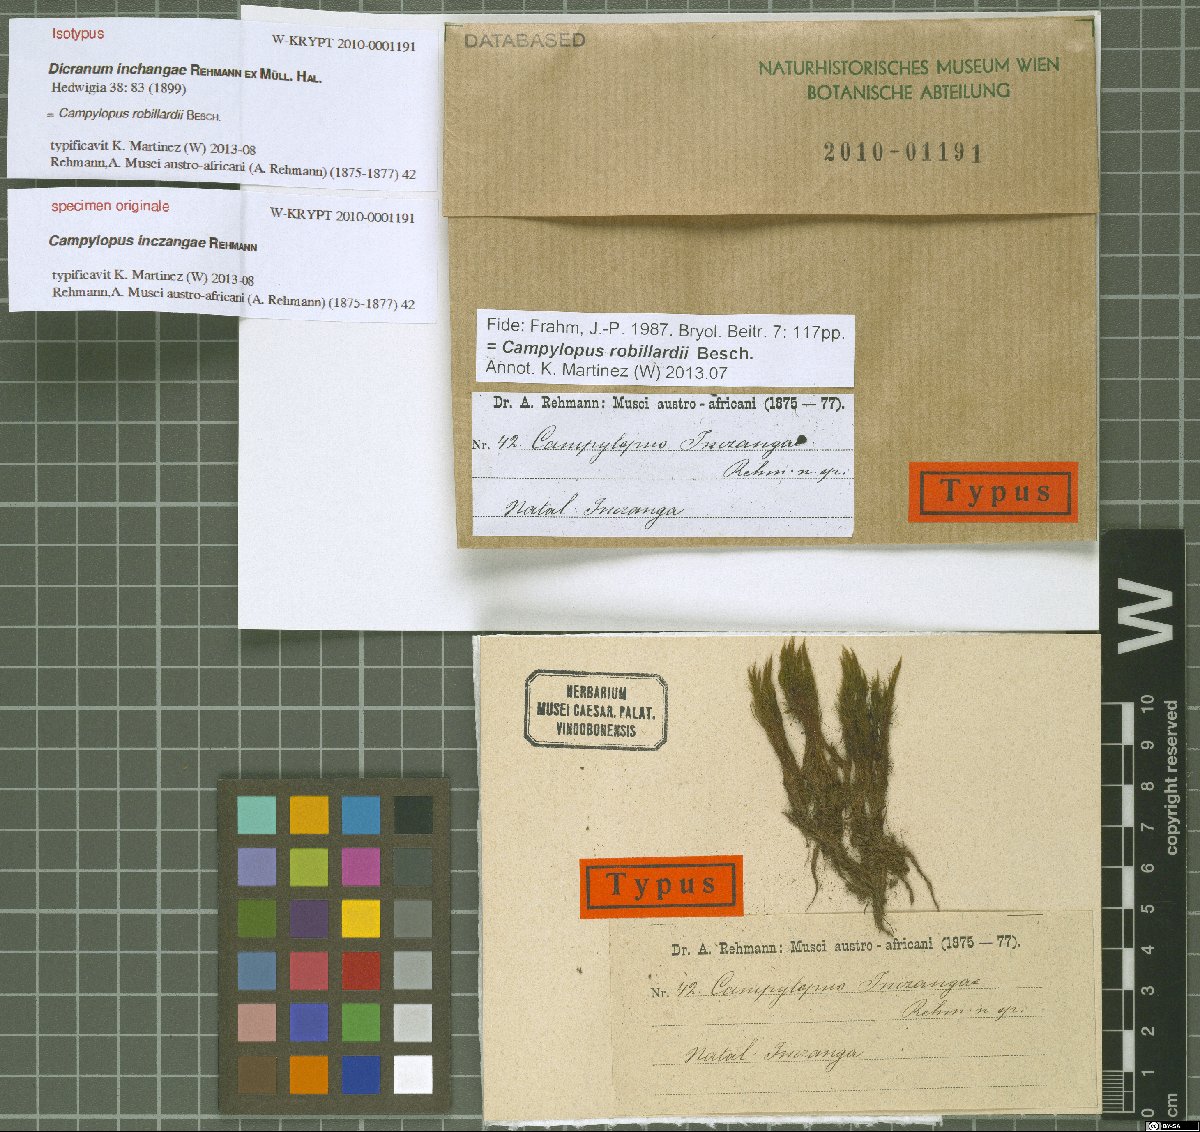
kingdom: Plantae
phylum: Bryophyta
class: Bryopsida
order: Dicranales
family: Leucobryaceae
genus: Campylopus
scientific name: Campylopus robillardii
